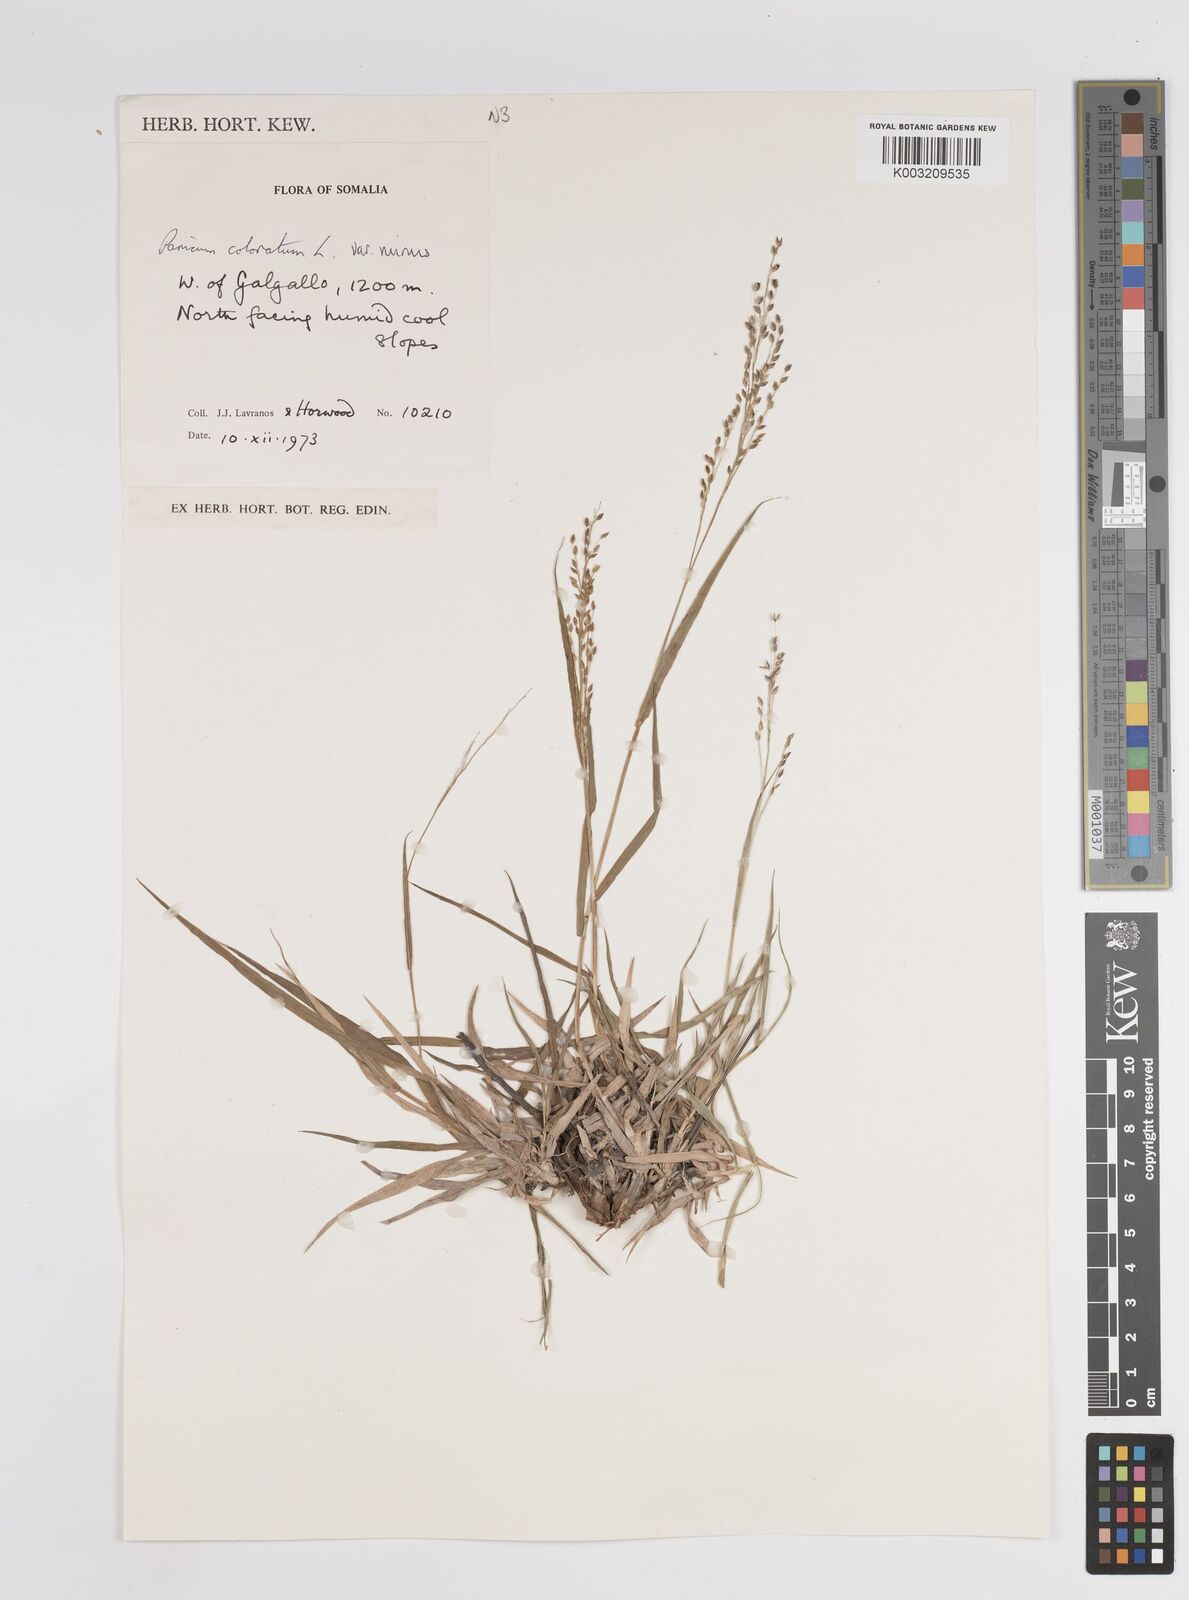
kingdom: Plantae
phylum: Tracheophyta
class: Liliopsida
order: Poales
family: Poaceae
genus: Panicum
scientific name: Panicum coloratum
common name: Kleingrass
